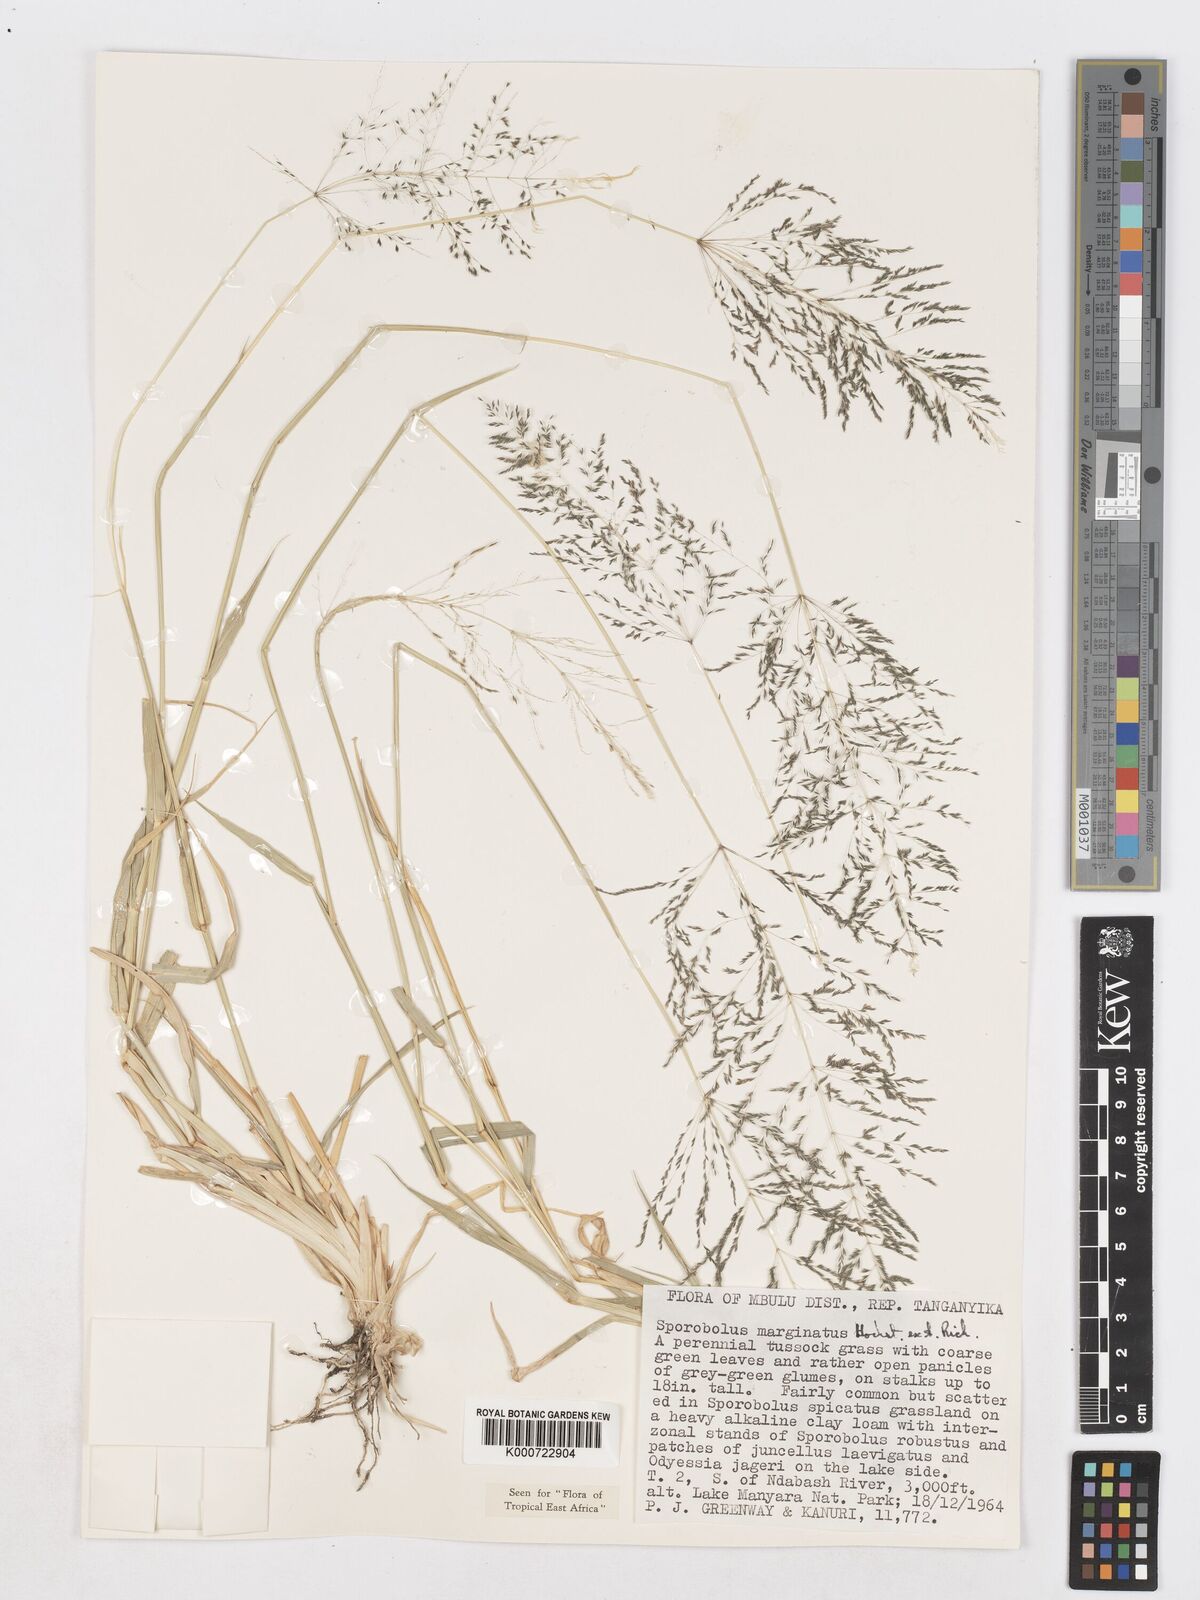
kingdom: Plantae
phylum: Tracheophyta
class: Liliopsida
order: Poales
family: Poaceae
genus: Sporobolus
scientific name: Sporobolus ioclados
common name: Pan dropseed
